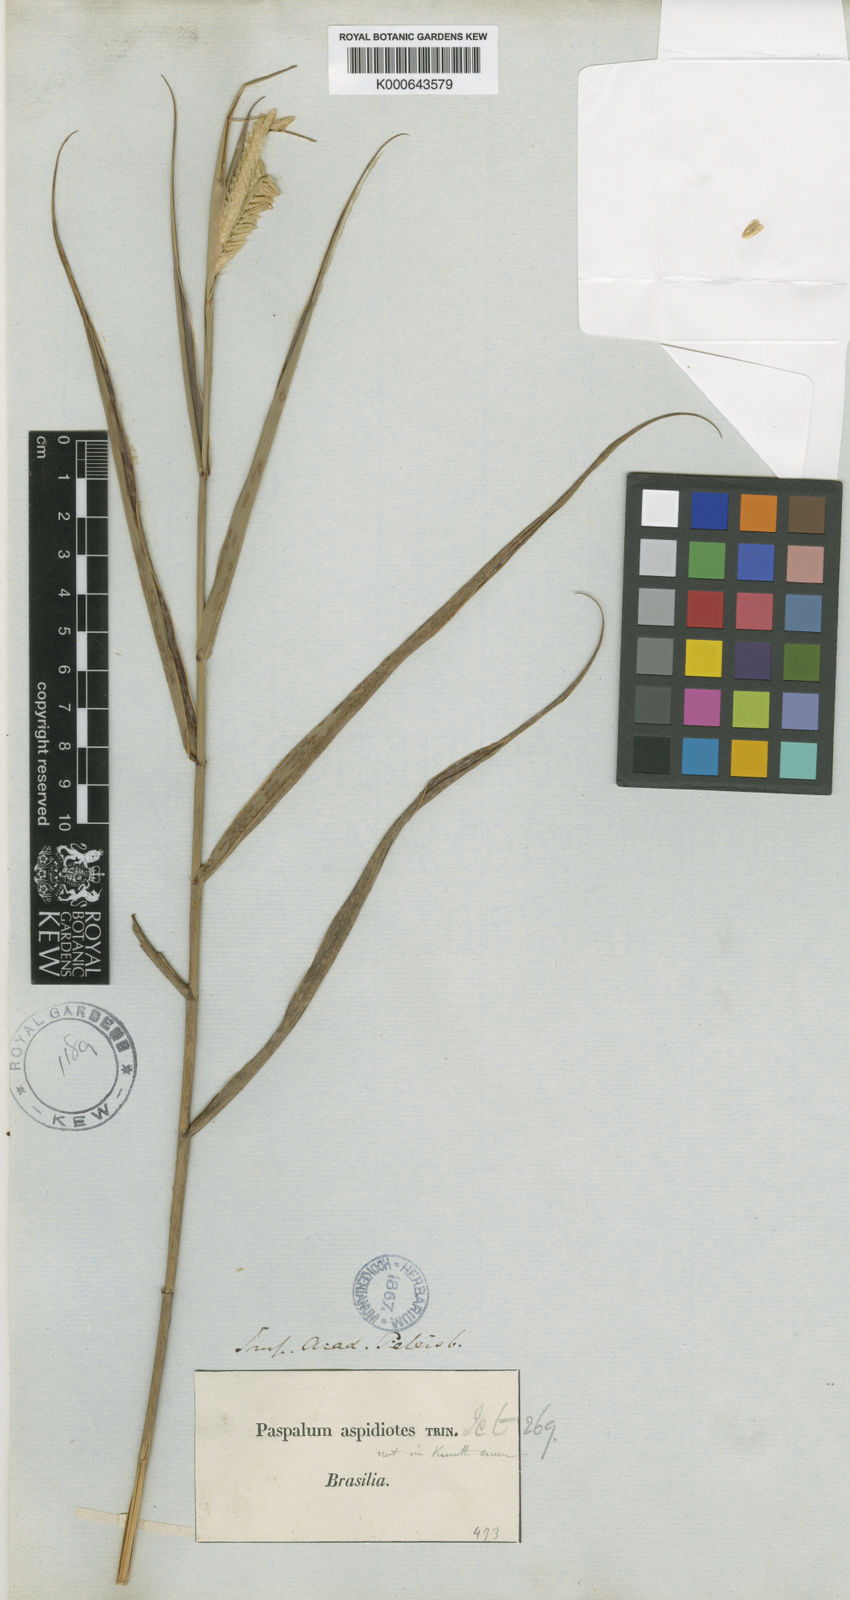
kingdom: Plantae
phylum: Tracheophyta
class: Liliopsida
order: Poales
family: Poaceae
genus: Paspalum
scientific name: Paspalum aspidiotes
